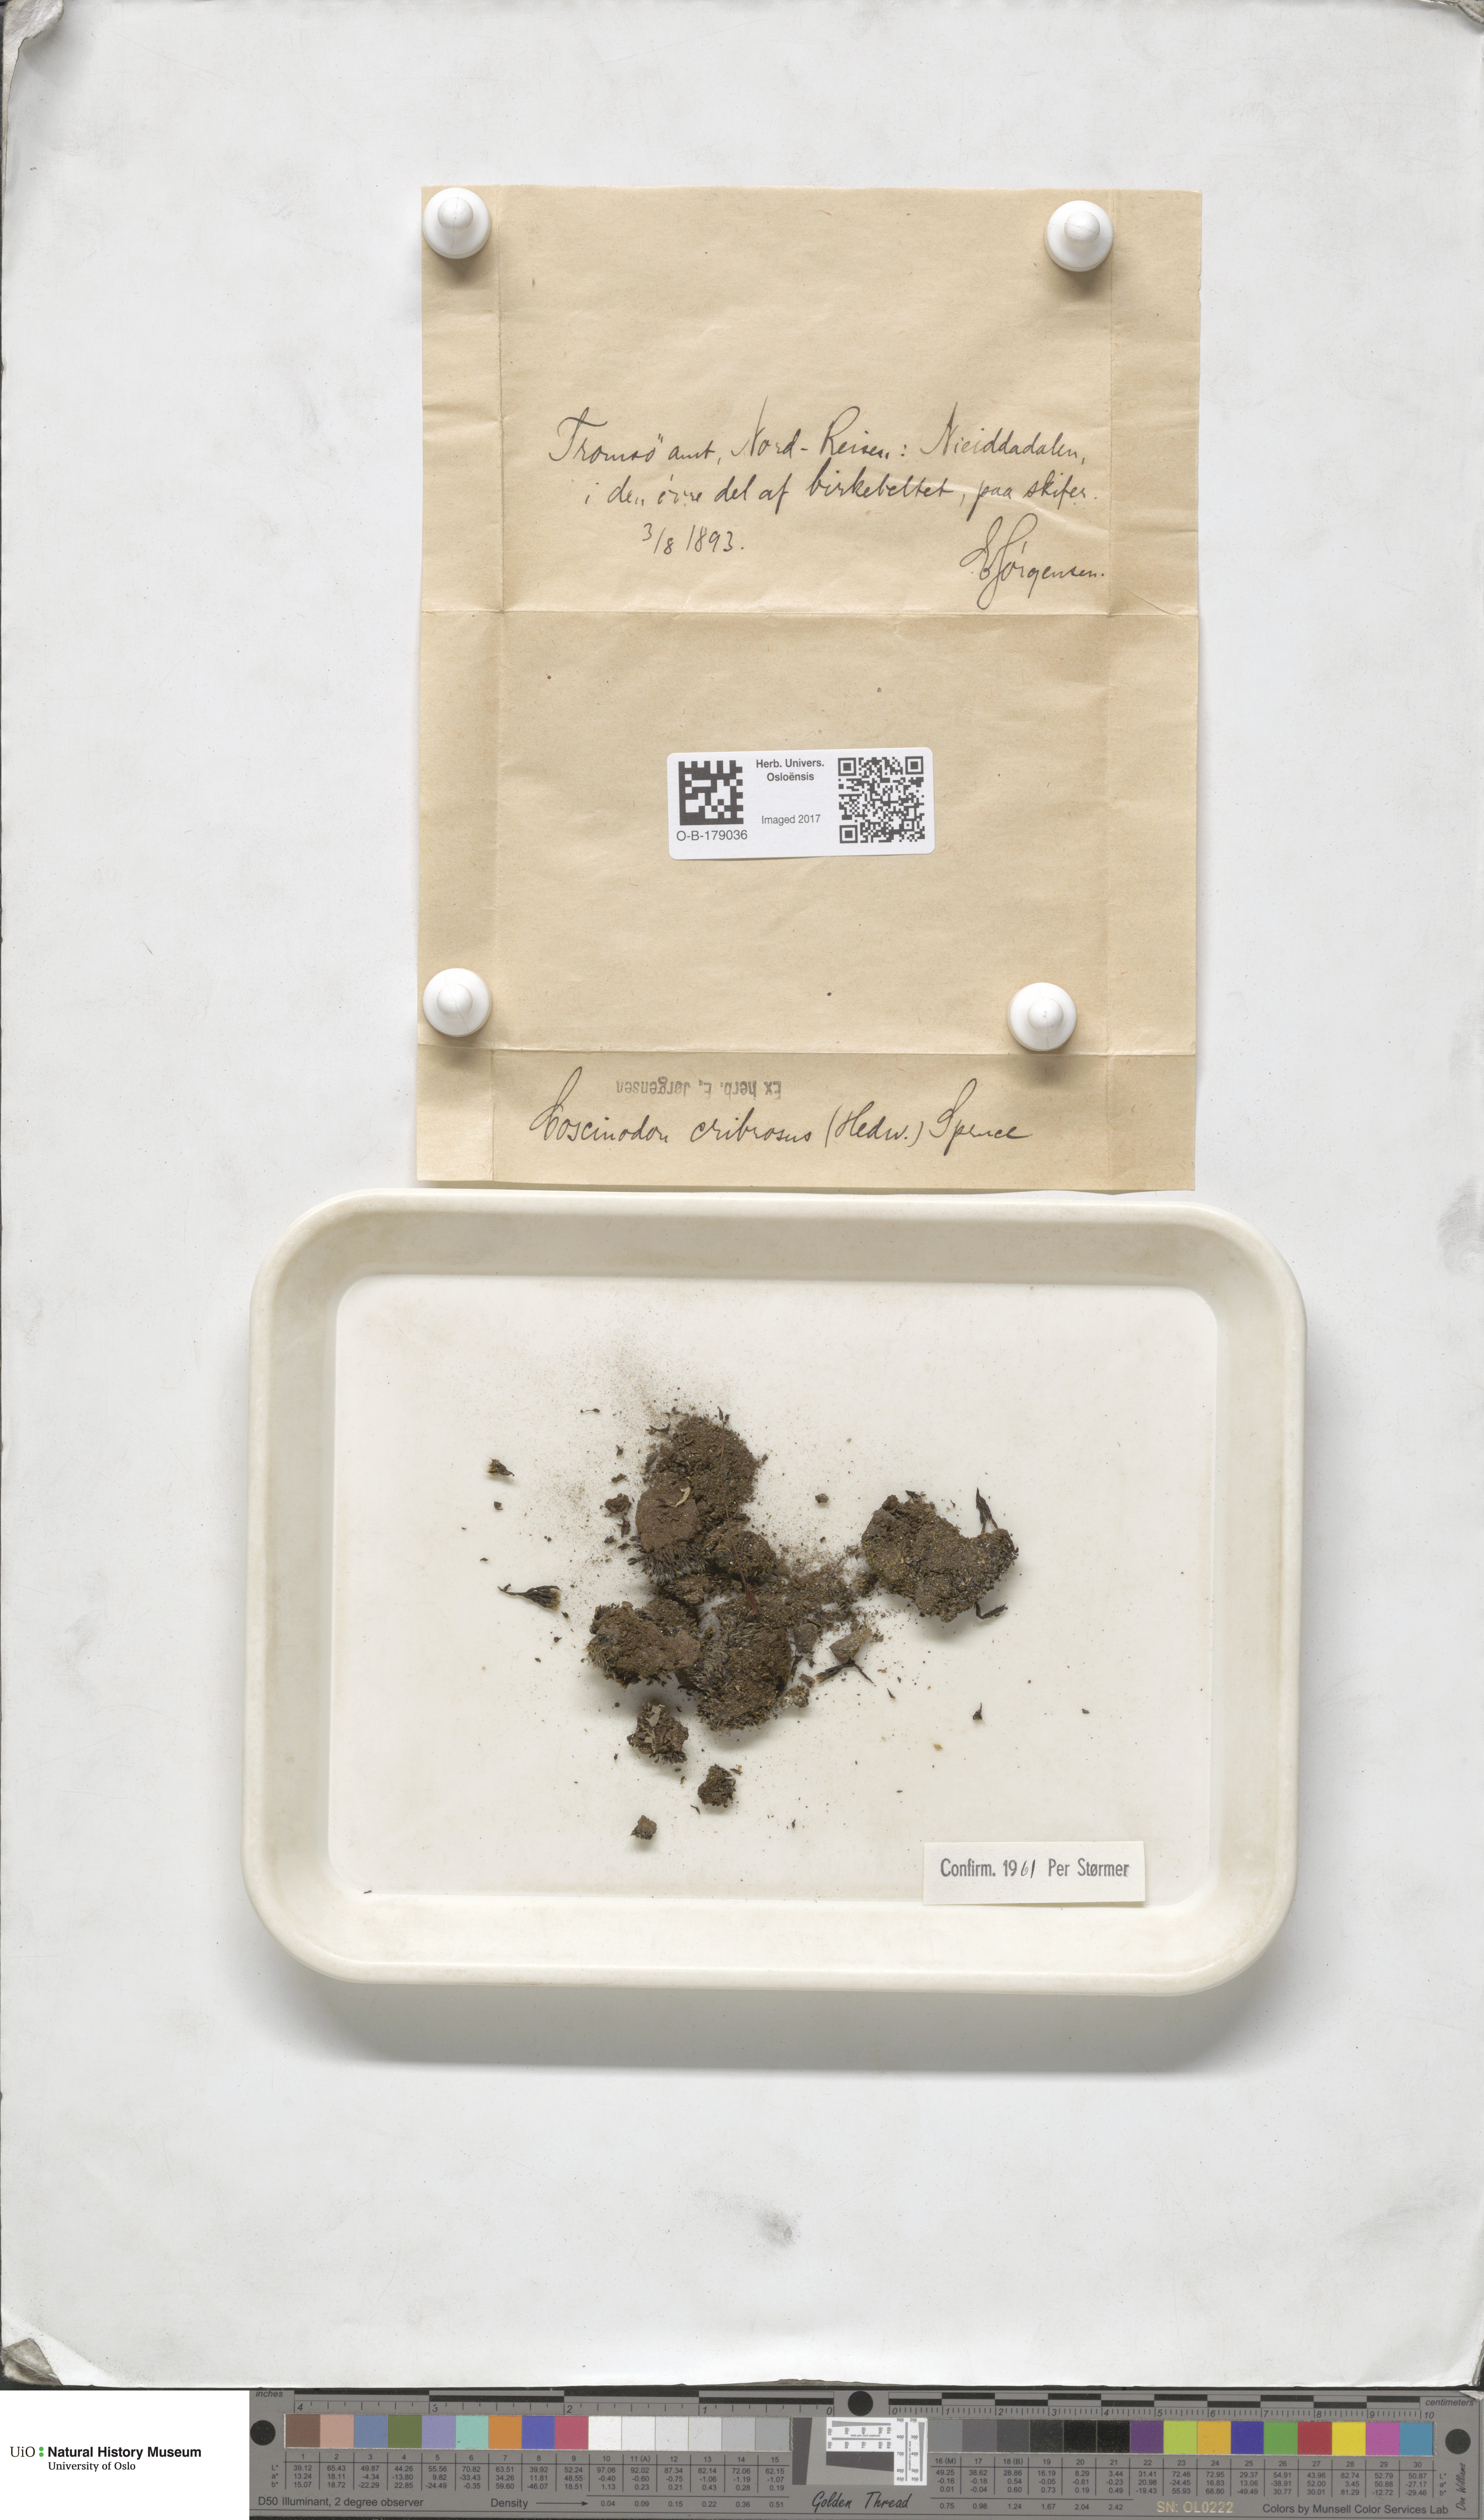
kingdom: Plantae
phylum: Bryophyta
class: Bryopsida
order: Bartramiales
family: Bartramiaceae
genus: Conostomum
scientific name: Conostomum tetragonum
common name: Helmet moss
